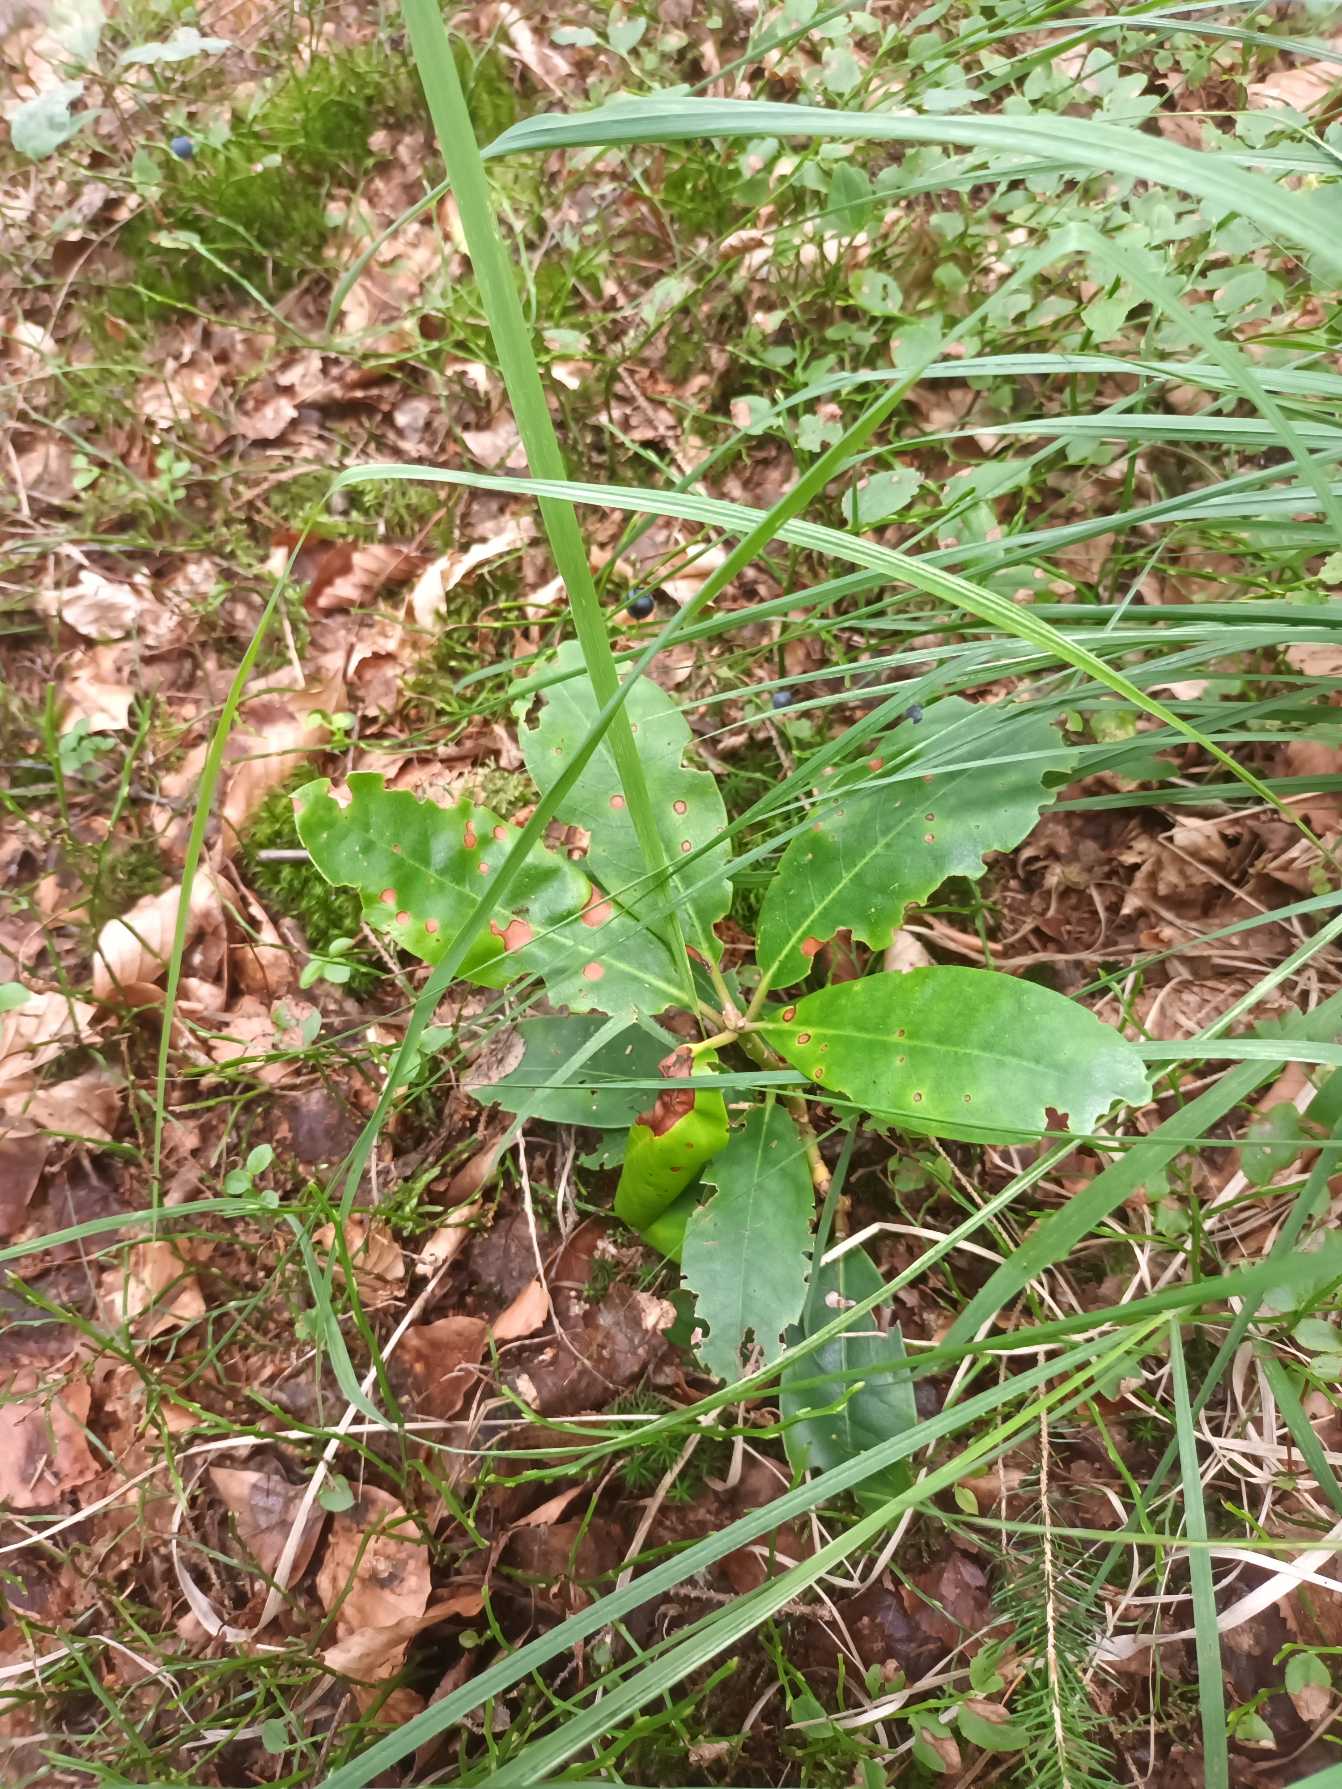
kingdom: Plantae
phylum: Tracheophyta
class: Magnoliopsida
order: Ericales
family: Ericaceae
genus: Rhododendron
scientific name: Rhododendron
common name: Rhododendronslægten
